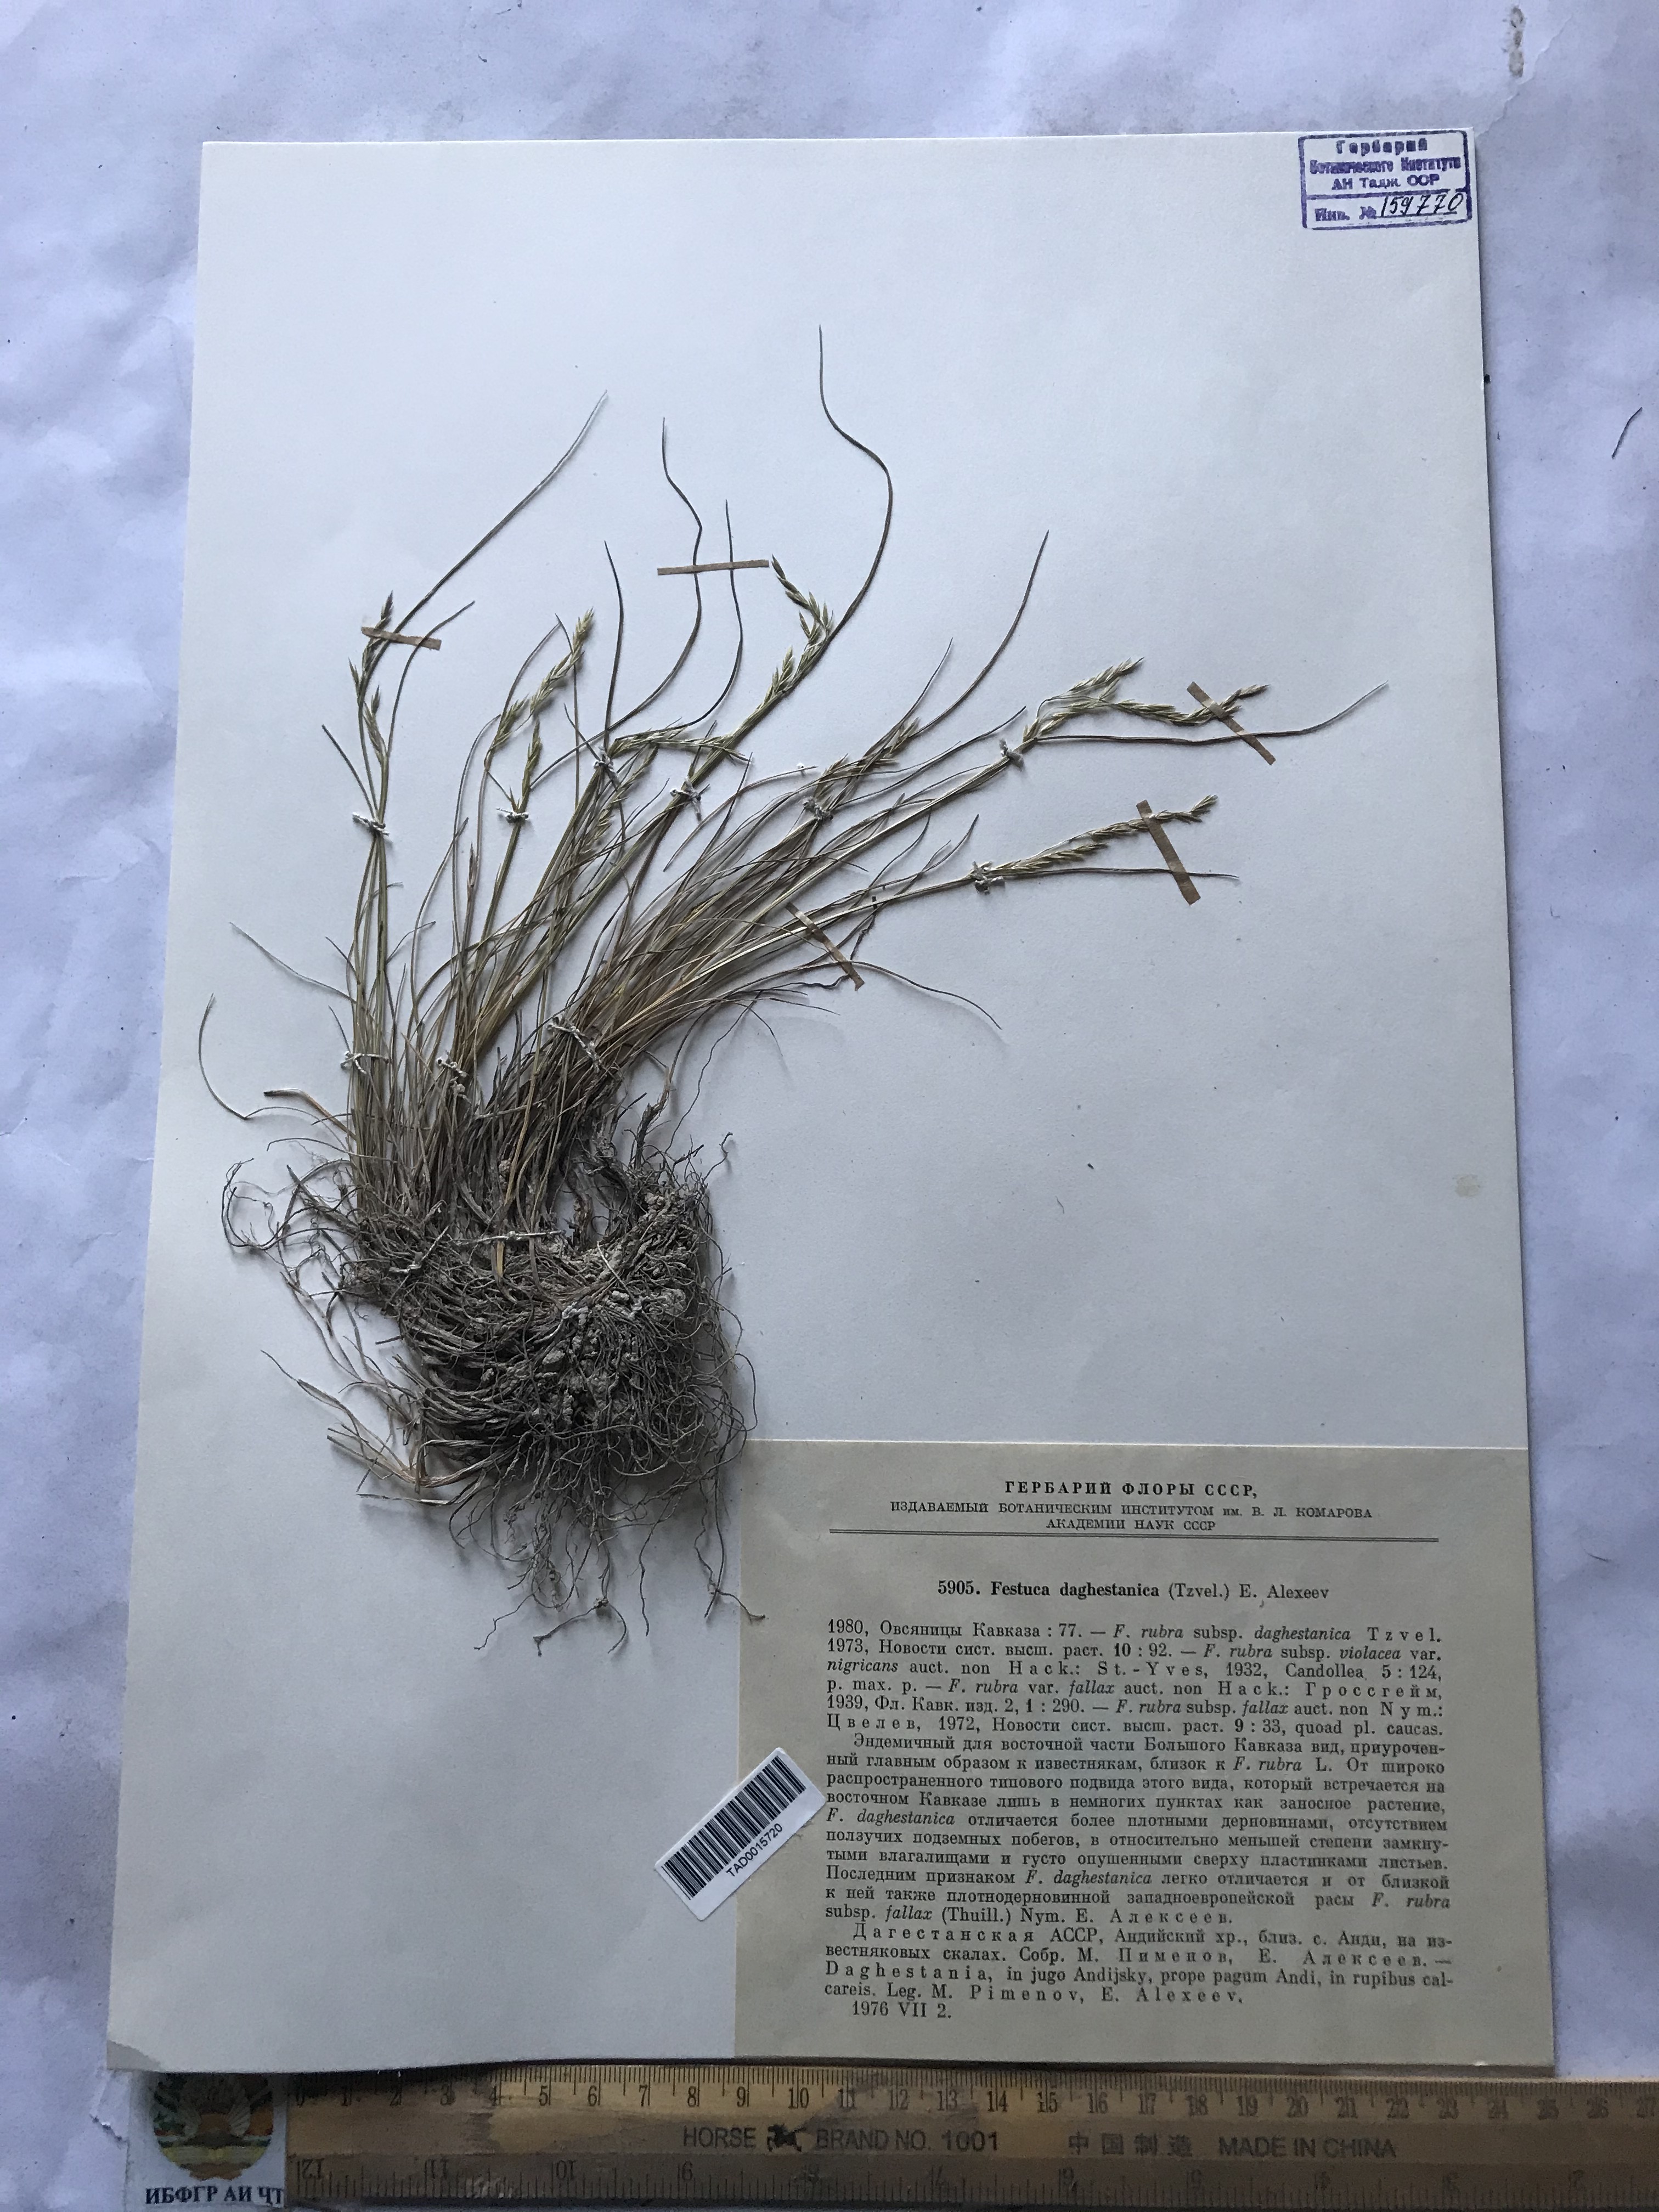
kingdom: Plantae
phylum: Tracheophyta
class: Liliopsida
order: Poales
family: Poaceae
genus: Festuca
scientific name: Festuca rubra
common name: Red fescue
